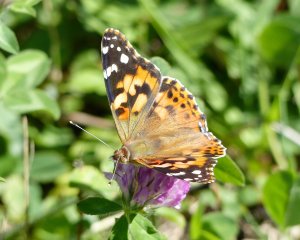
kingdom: Animalia
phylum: Arthropoda
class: Insecta
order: Lepidoptera
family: Nymphalidae
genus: Vanessa
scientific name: Vanessa cardui
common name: Painted Lady
